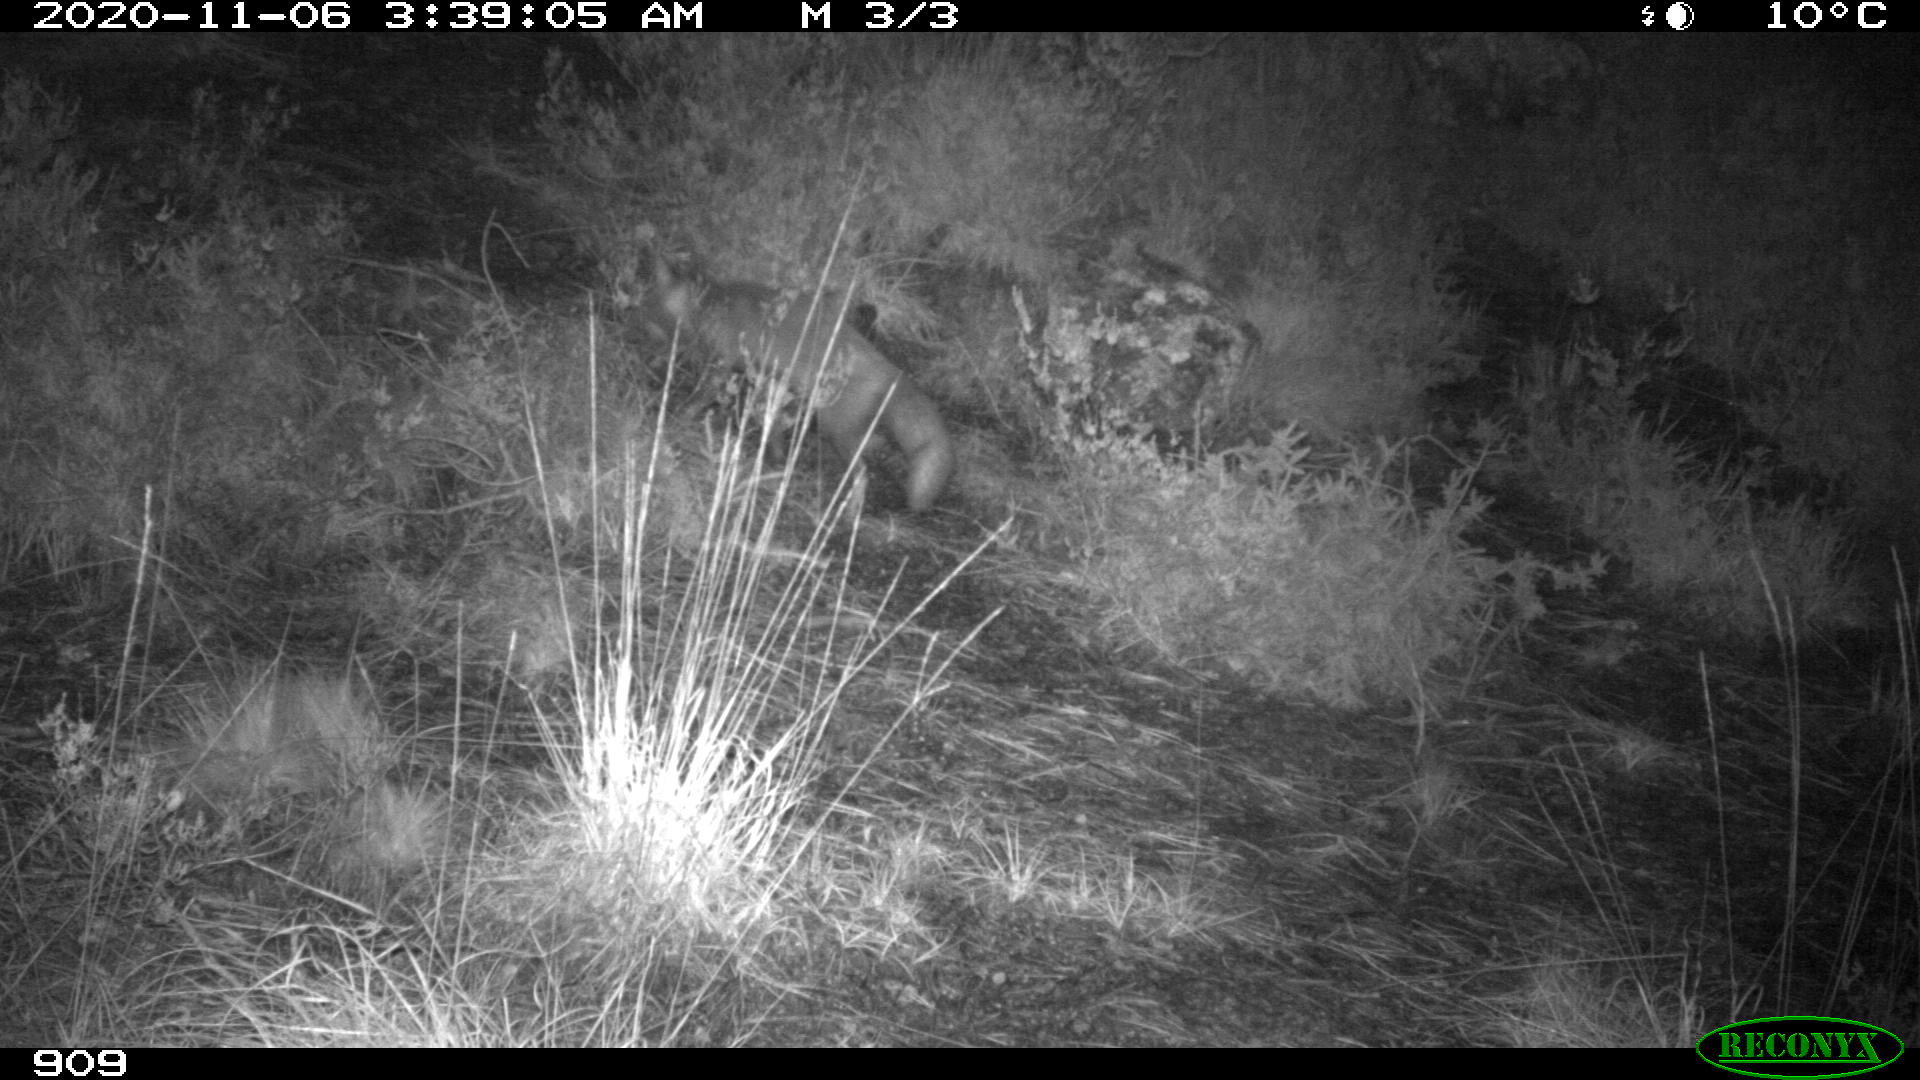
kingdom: Animalia
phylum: Chordata
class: Mammalia
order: Carnivora
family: Canidae
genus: Vulpes
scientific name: Vulpes vulpes
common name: Red fox
